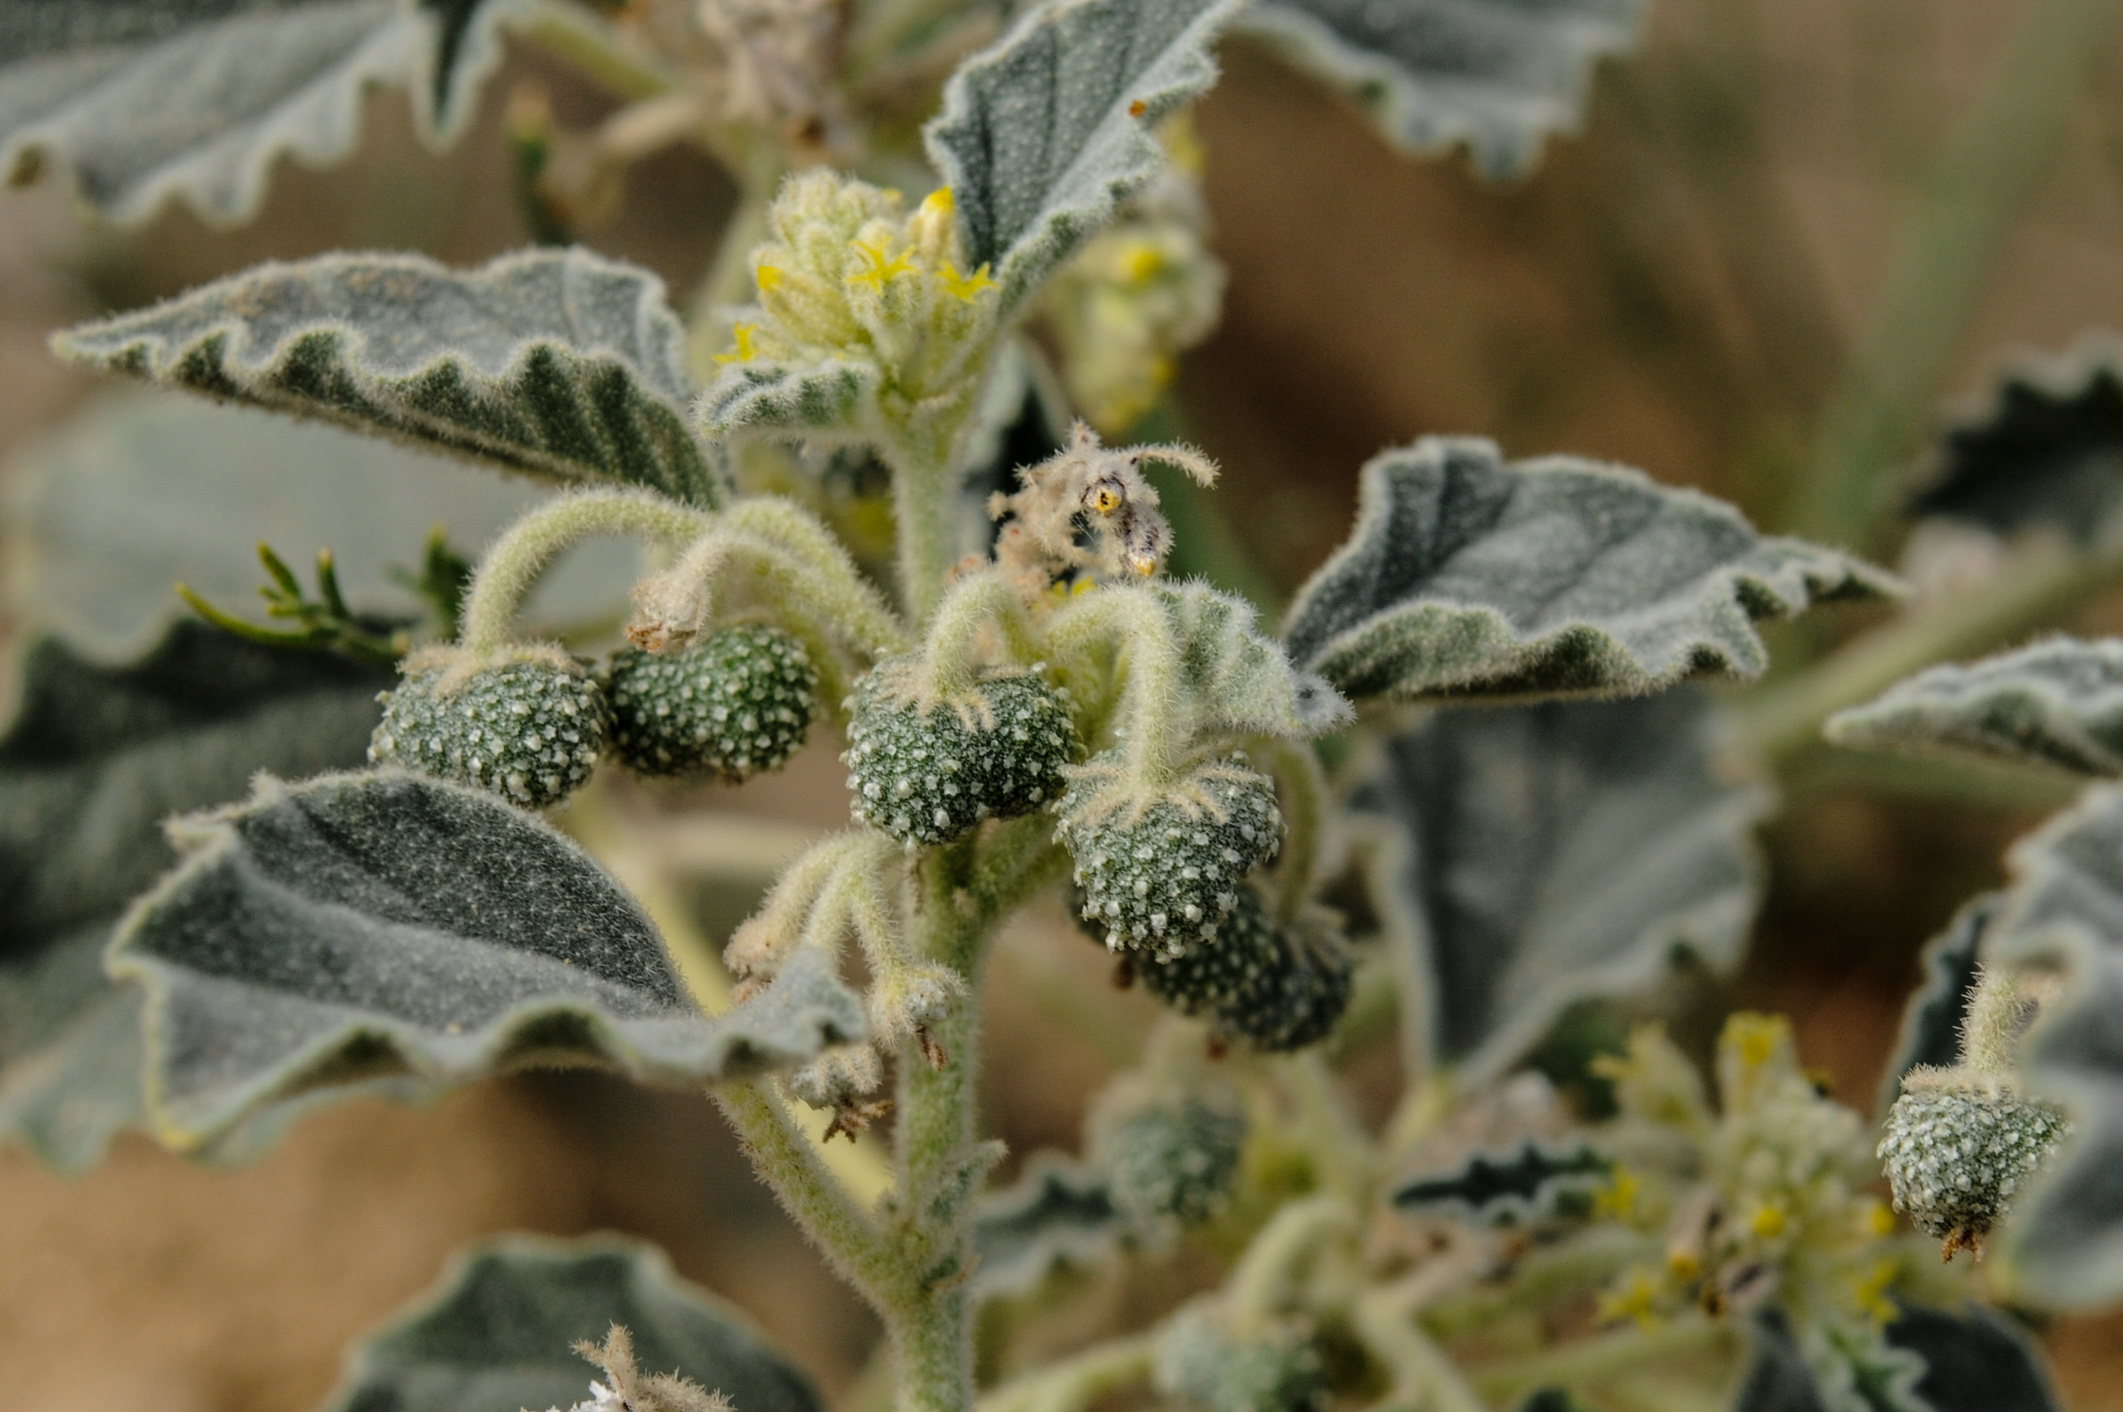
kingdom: Plantae
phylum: Tracheophyta
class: Magnoliopsida
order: Malpighiales
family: Euphorbiaceae
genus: Chrozophora
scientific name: Chrozophora tinctoria
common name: Dyer's litmus
